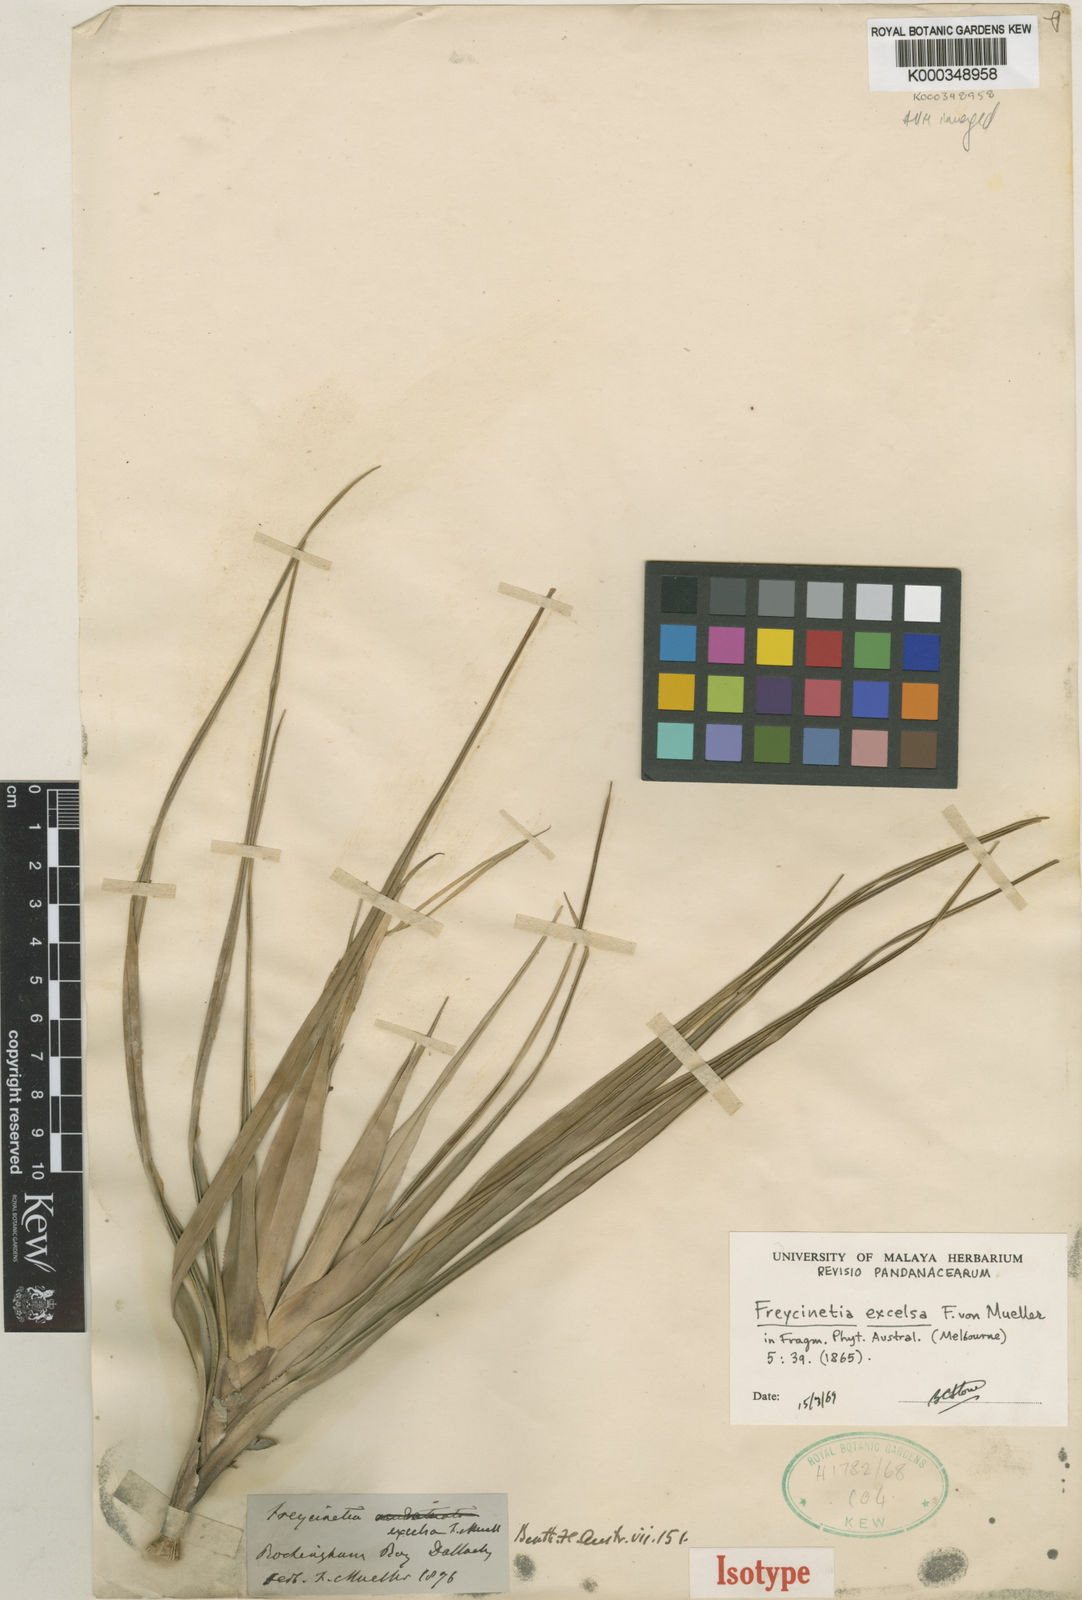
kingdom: Plantae
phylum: Tracheophyta
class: Liliopsida
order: Pandanales
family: Pandanaceae
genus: Freycinetia
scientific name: Freycinetia excelsa
